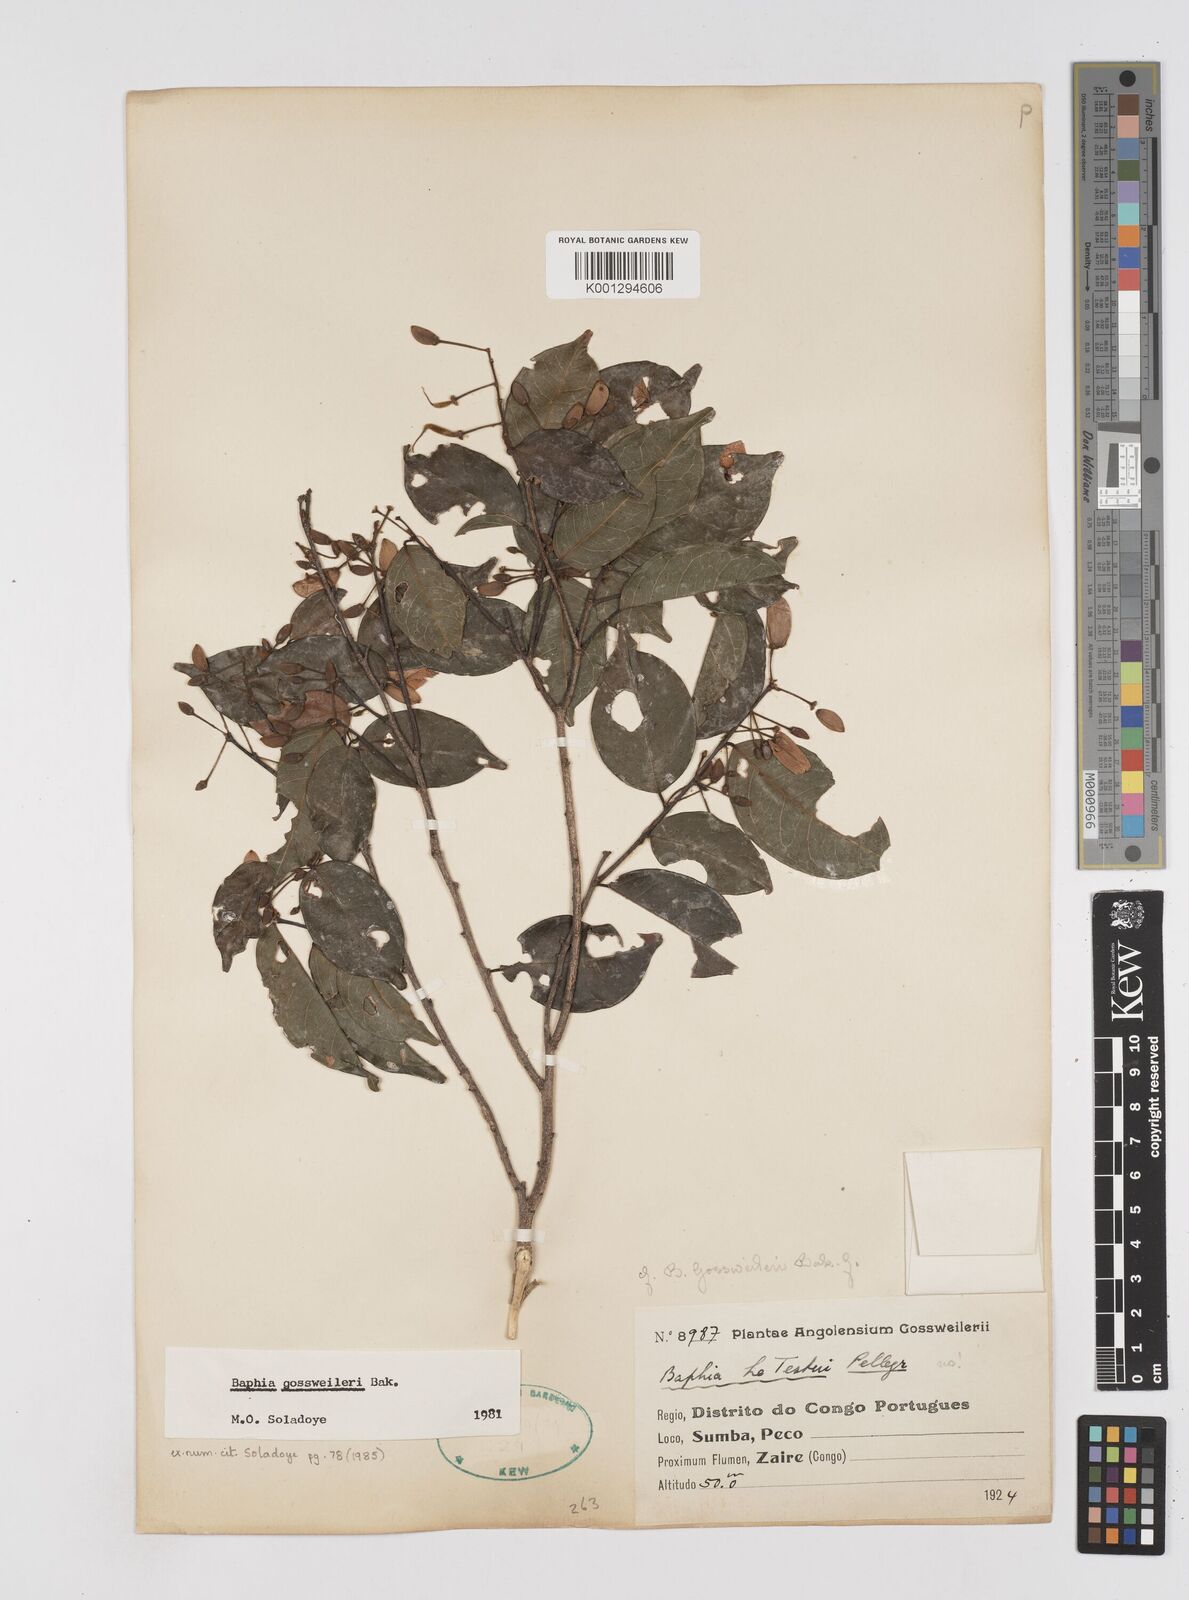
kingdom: Plantae
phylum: Tracheophyta
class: Magnoliopsida
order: Fabales
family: Fabaceae
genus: Baphia
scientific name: Baphia gossweileri
